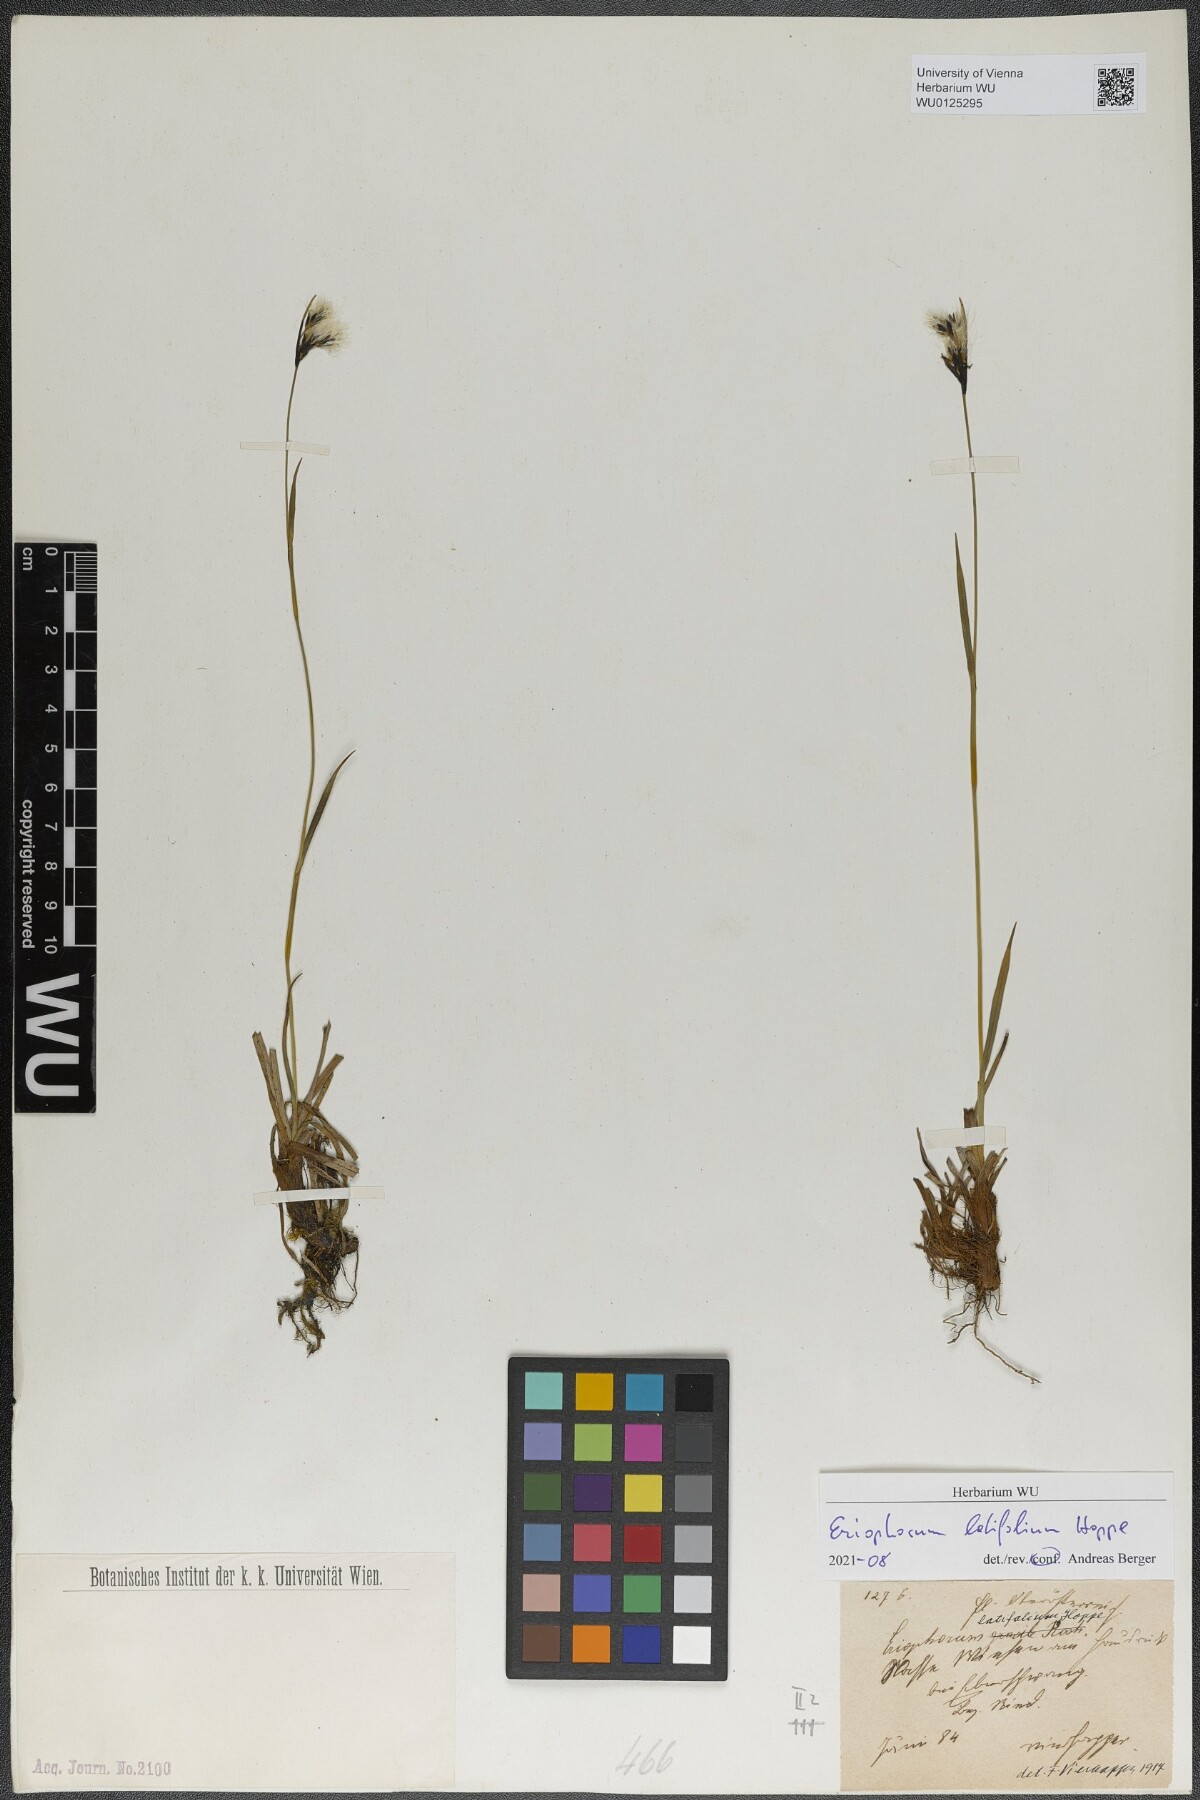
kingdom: Plantae
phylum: Tracheophyta
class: Liliopsida
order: Poales
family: Cyperaceae
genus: Eriophorum
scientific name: Eriophorum latifolium
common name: Broad-leaved cottongrass
